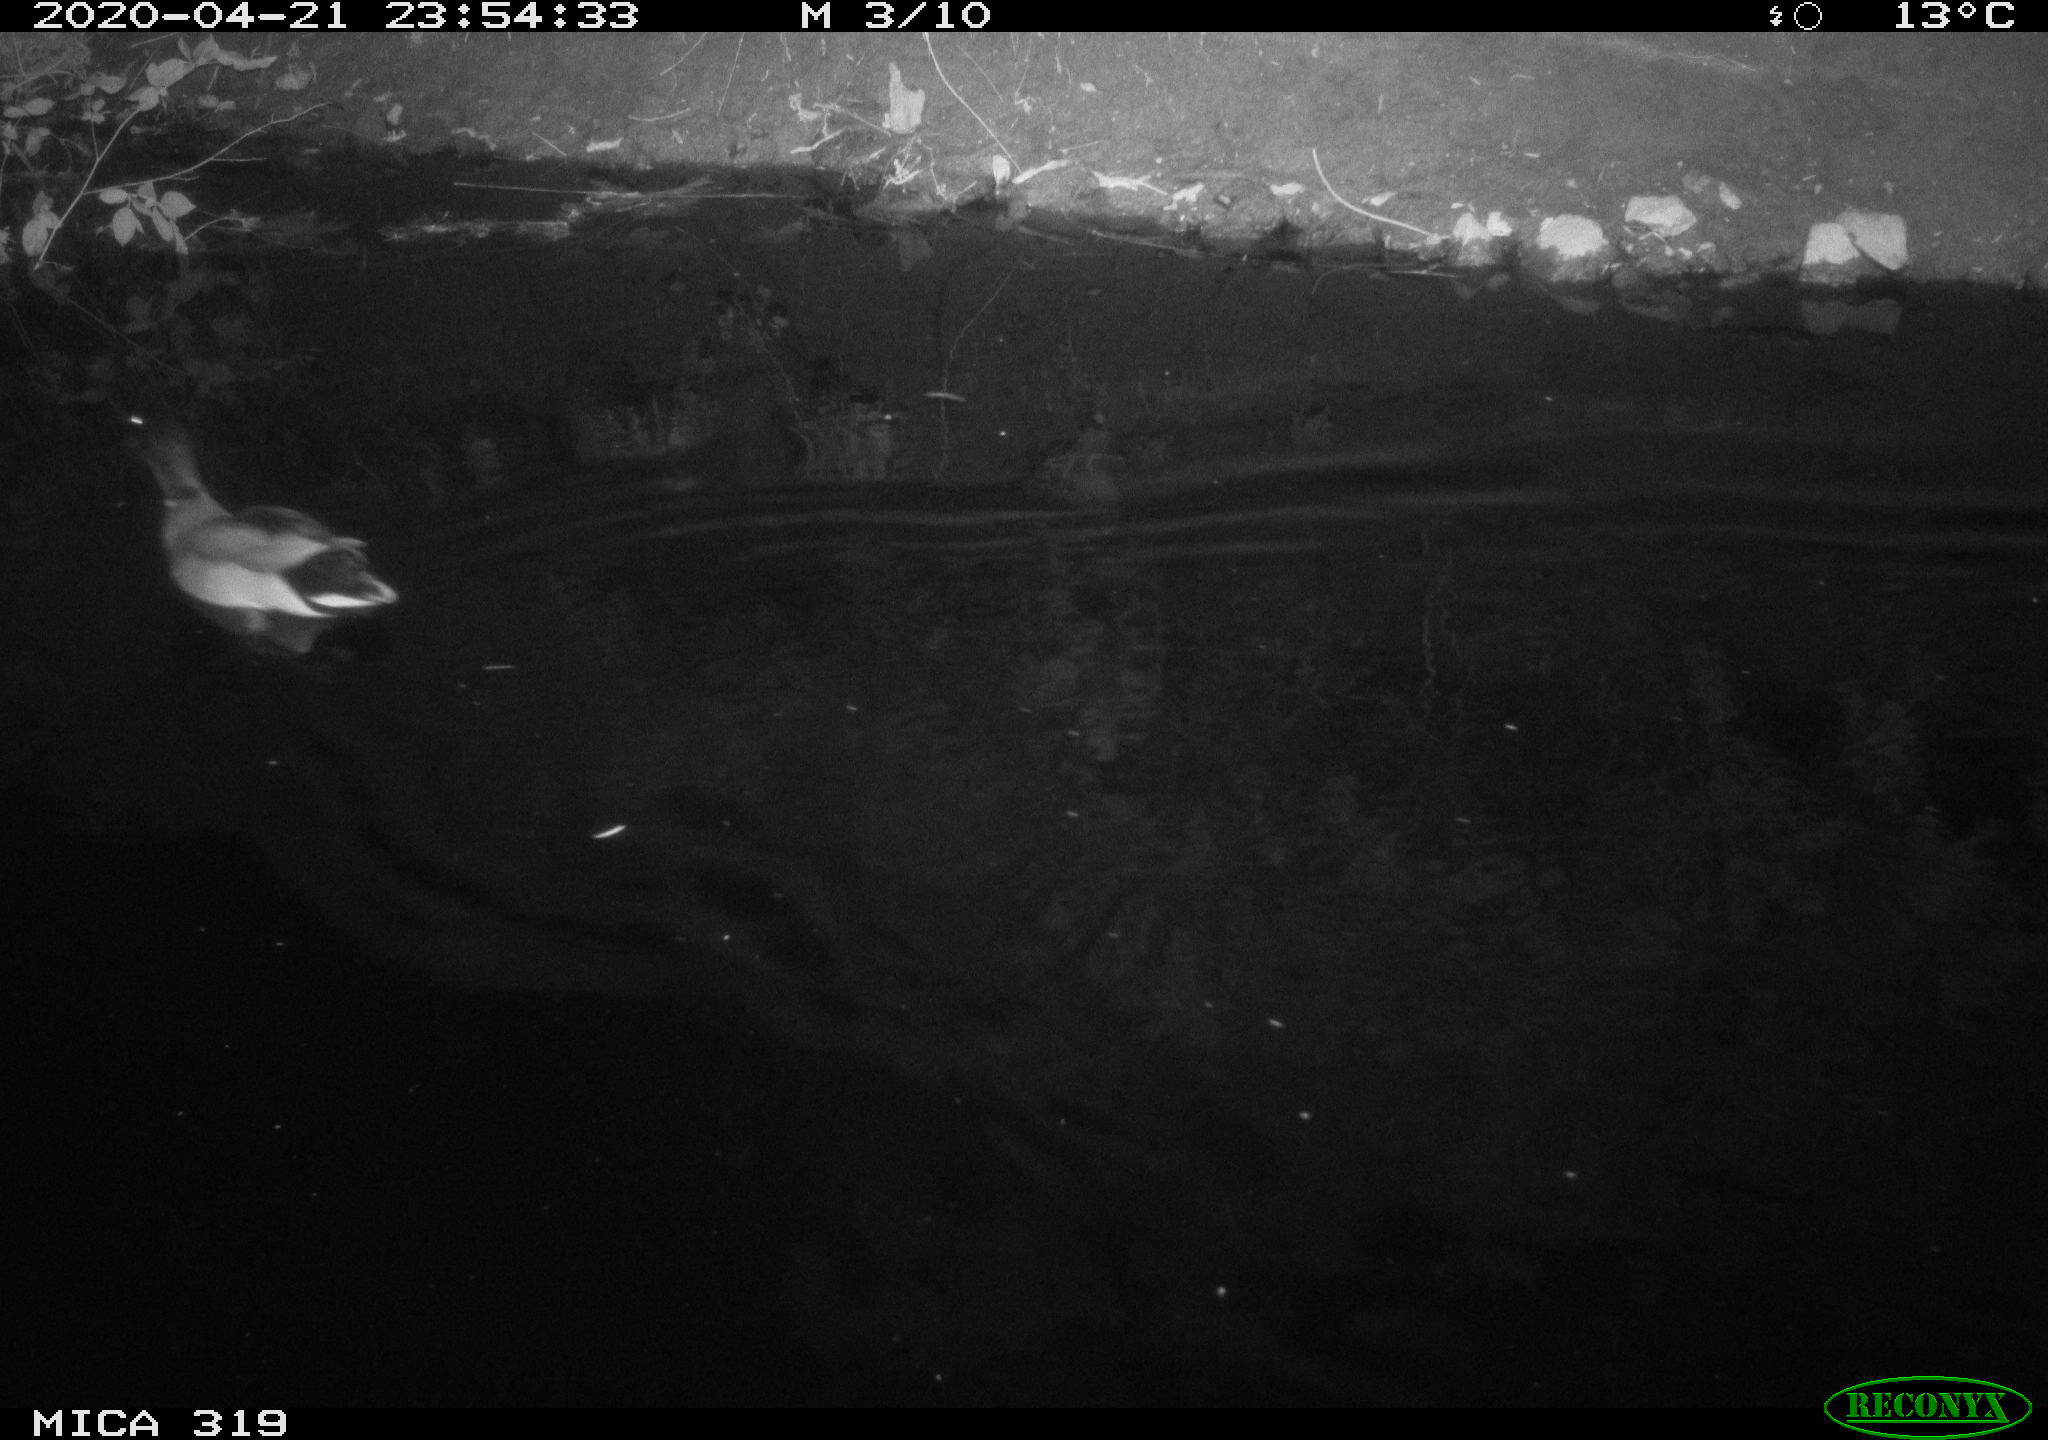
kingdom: Animalia
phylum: Chordata
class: Aves
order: Anseriformes
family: Anatidae
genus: Anas
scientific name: Anas platyrhynchos
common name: Mallard
